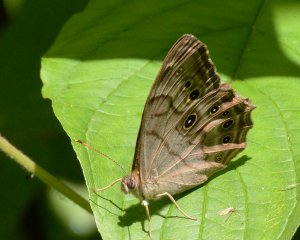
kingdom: Animalia
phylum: Arthropoda
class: Insecta
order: Lepidoptera
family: Nymphalidae
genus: Lethe
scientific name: Lethe anthedon
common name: Northern Pearly-Eye
